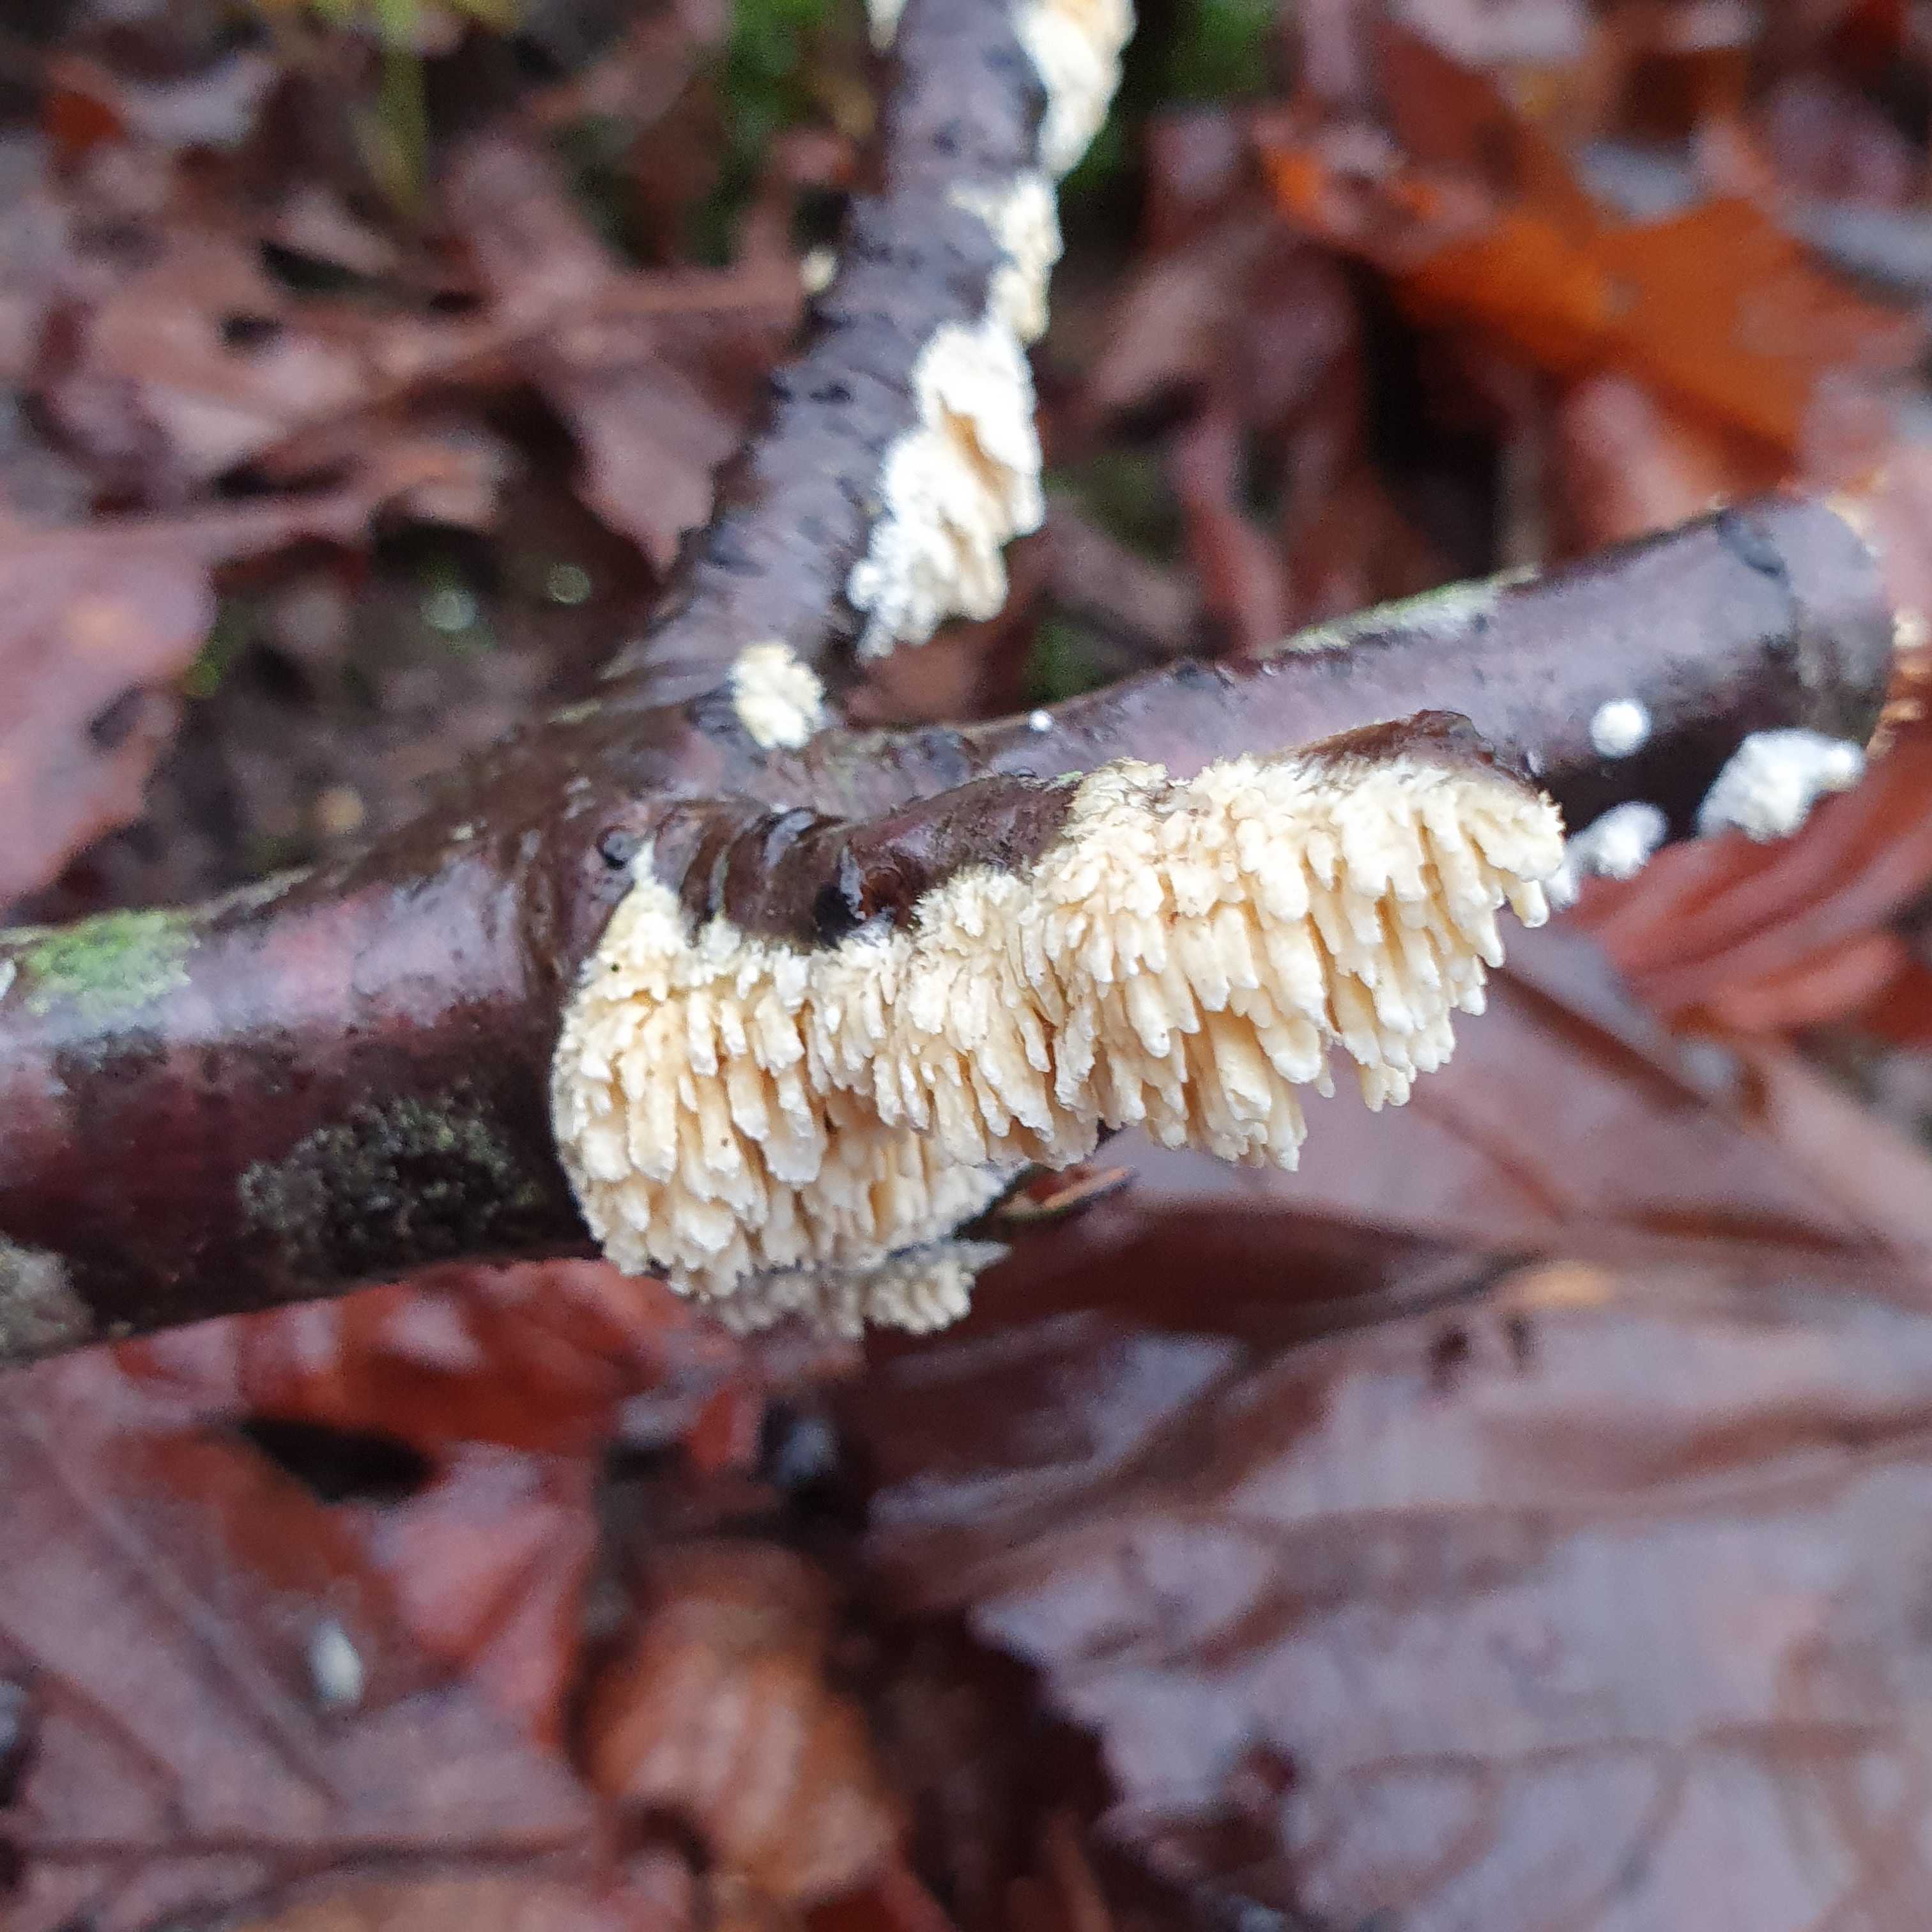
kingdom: Fungi
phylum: Basidiomycota
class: Agaricomycetes
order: Hymenochaetales
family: Schizoporaceae
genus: Xylodon
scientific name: Xylodon radula
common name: grovtandet kalkskind
